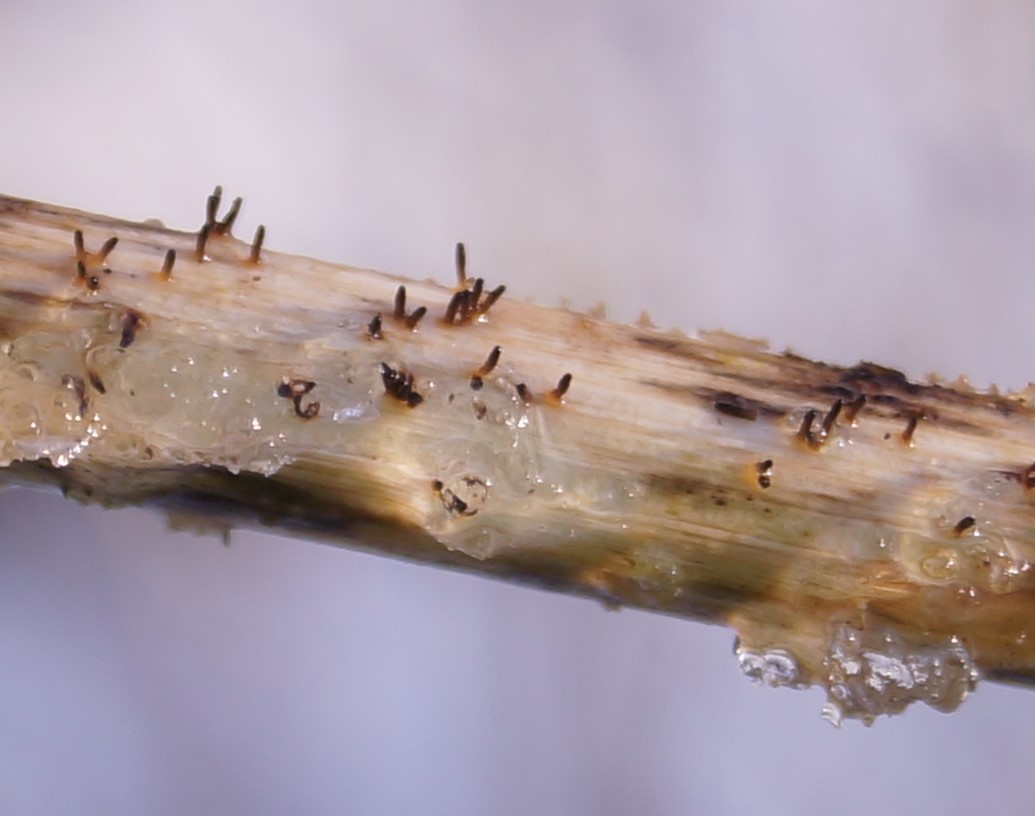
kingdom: Fungi
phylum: Ascomycota
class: Dothideomycetes
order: Acrospermales
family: Acrospermaceae
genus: Acrospermum
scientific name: Acrospermum compressum
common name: nælde-stængeltunge
